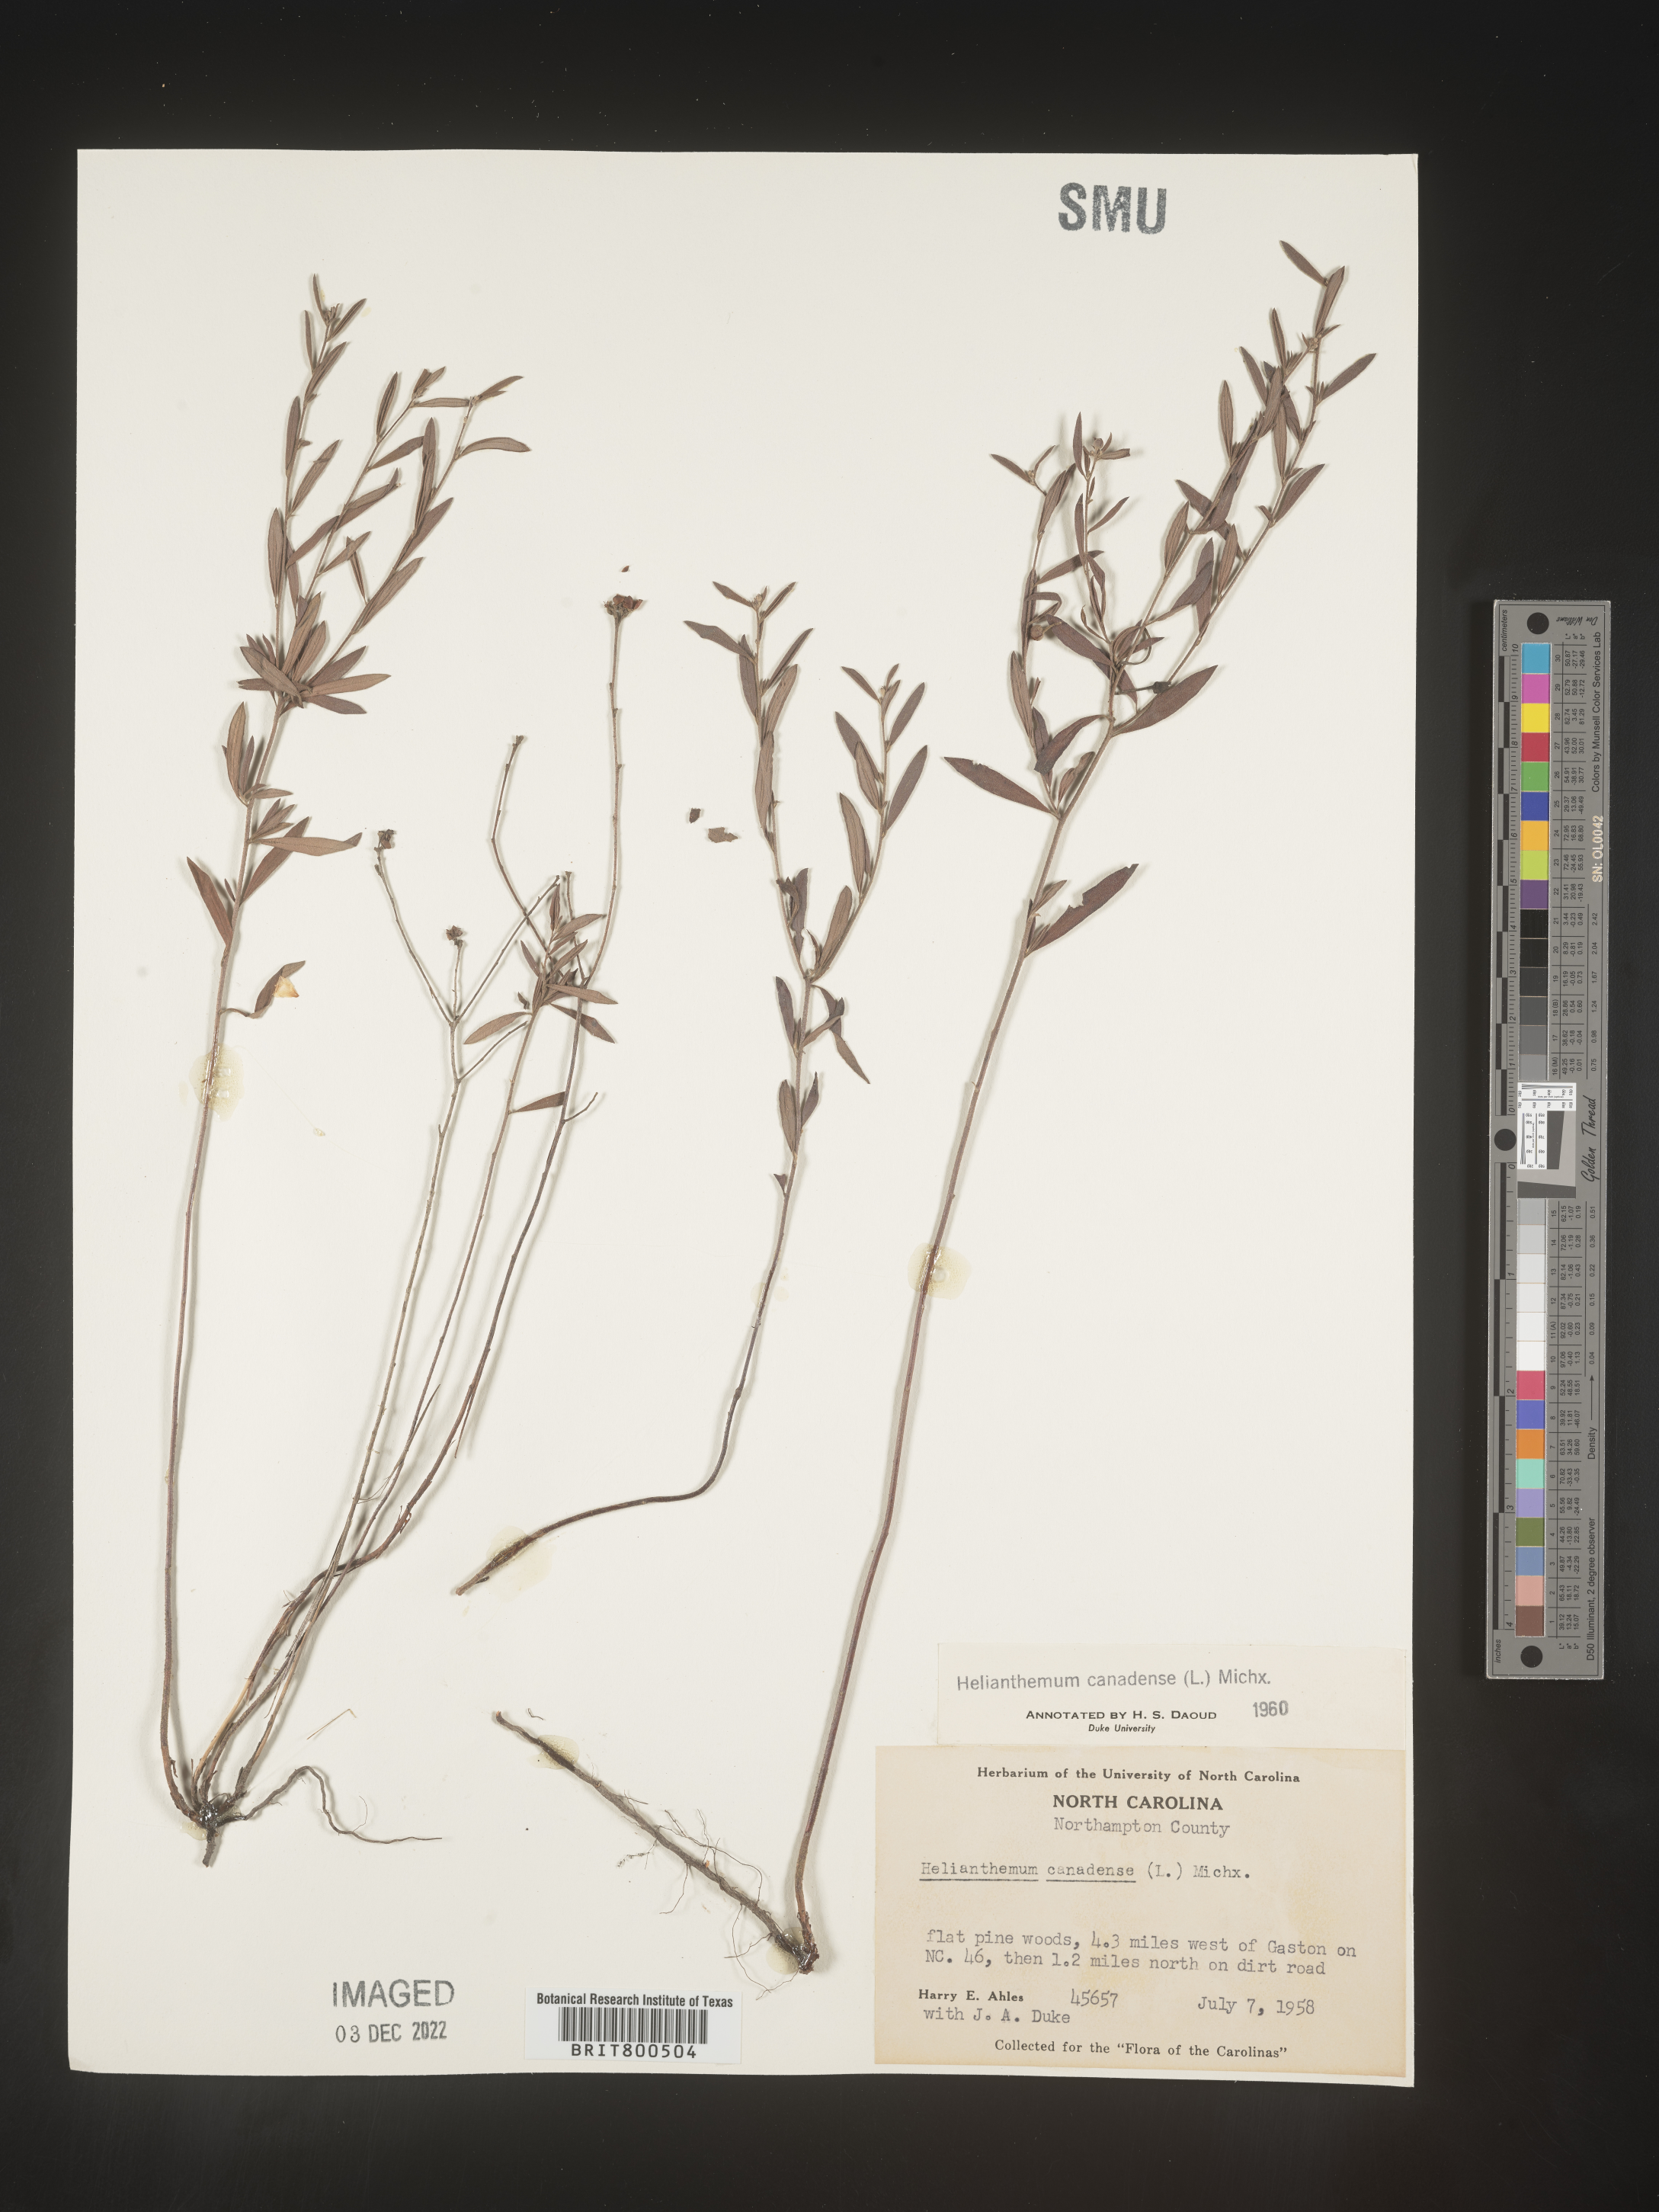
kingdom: Plantae
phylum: Tracheophyta
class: Magnoliopsida
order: Malvales
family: Cistaceae
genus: Crocanthemum
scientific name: Crocanthemum canadense
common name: Canada frostweed
